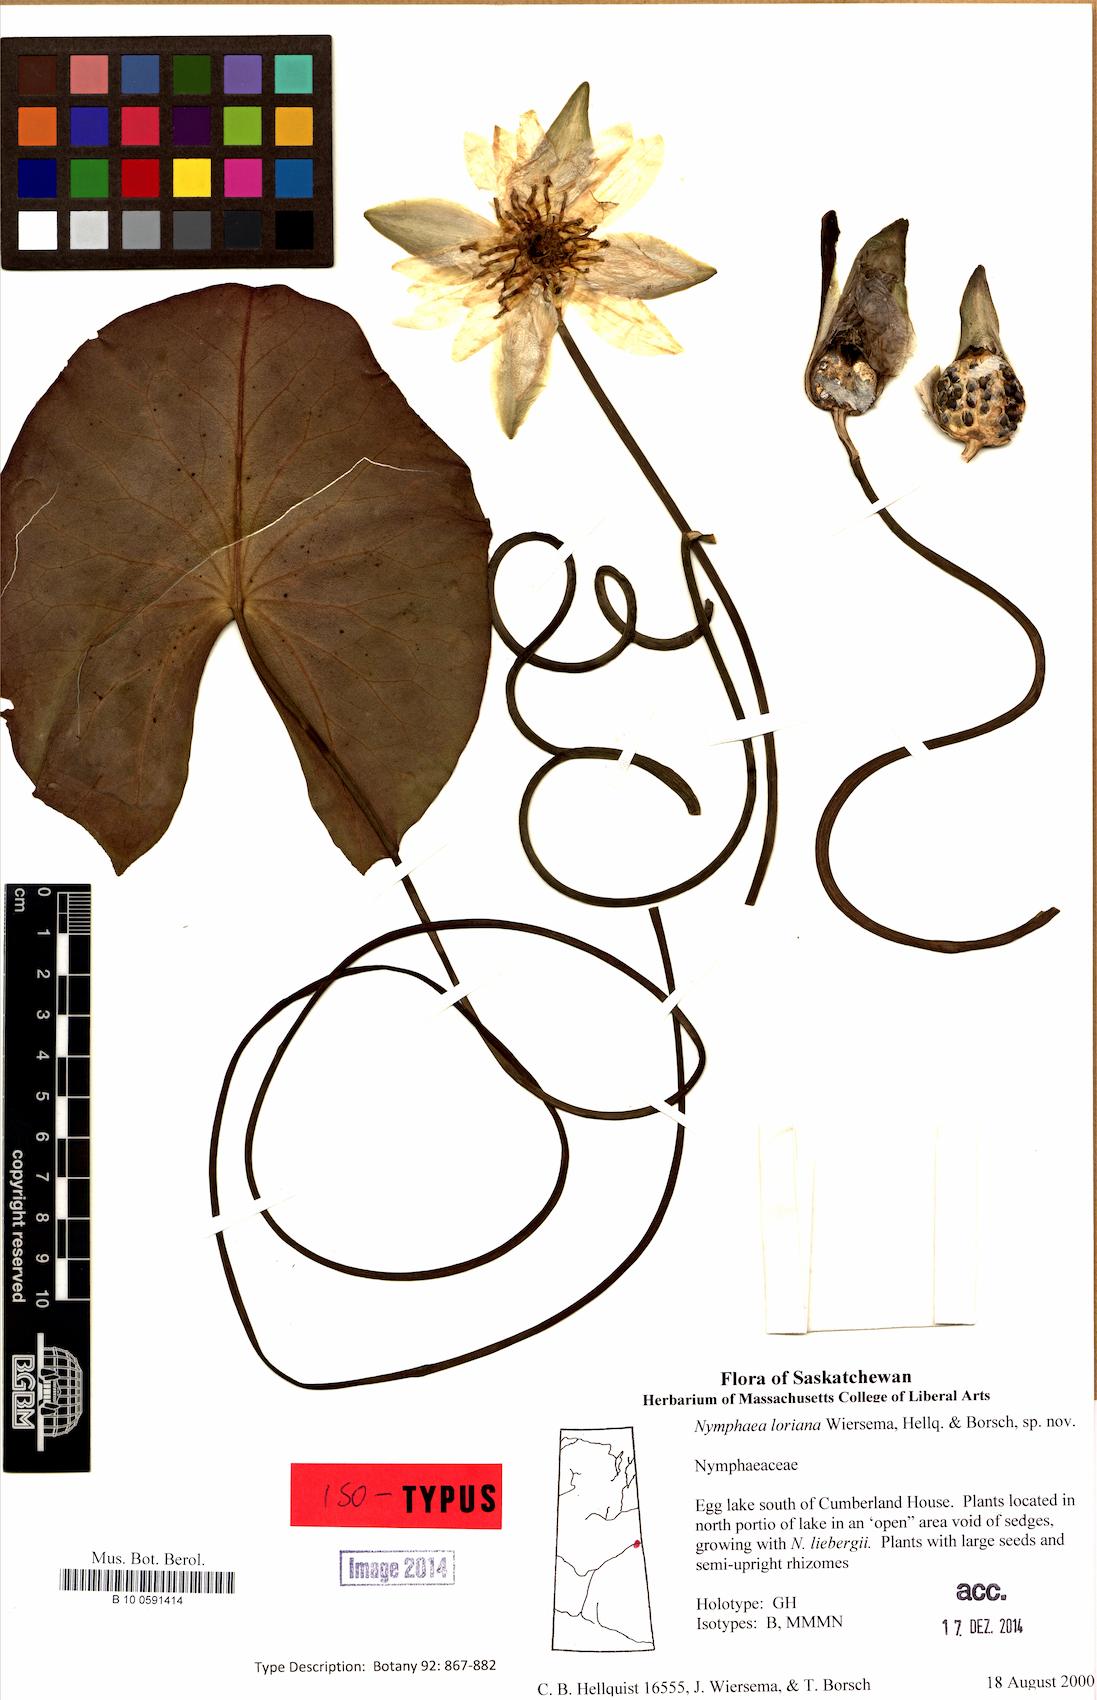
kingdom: Plantae
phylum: Tracheophyta
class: Magnoliopsida
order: Nymphaeales
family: Nymphaeaceae
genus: Nymphaea
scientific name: Nymphaea loriana
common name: Lori's water-lily
